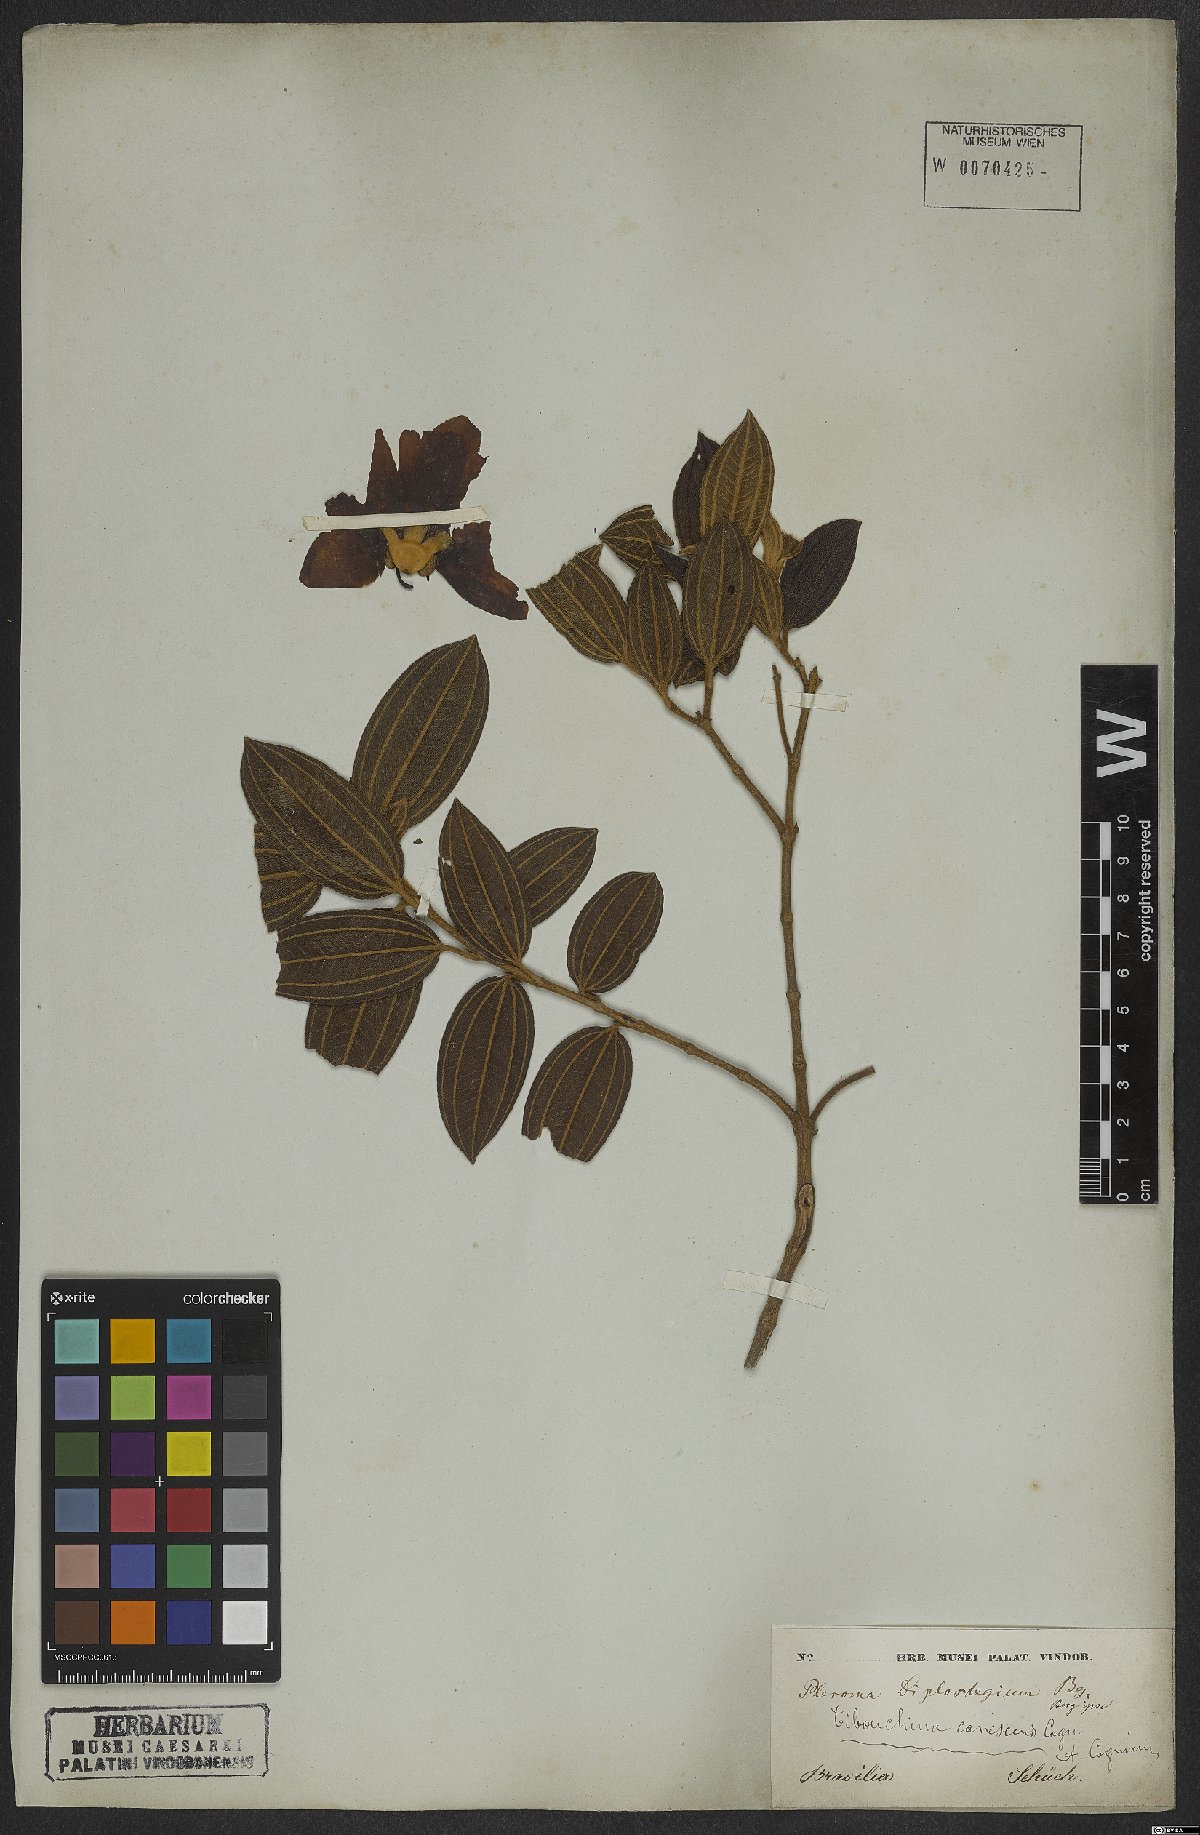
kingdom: Plantae
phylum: Tracheophyta
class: Magnoliopsida
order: Myrtales
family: Melastomataceae
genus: Pleroma
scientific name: Pleroma canescens
